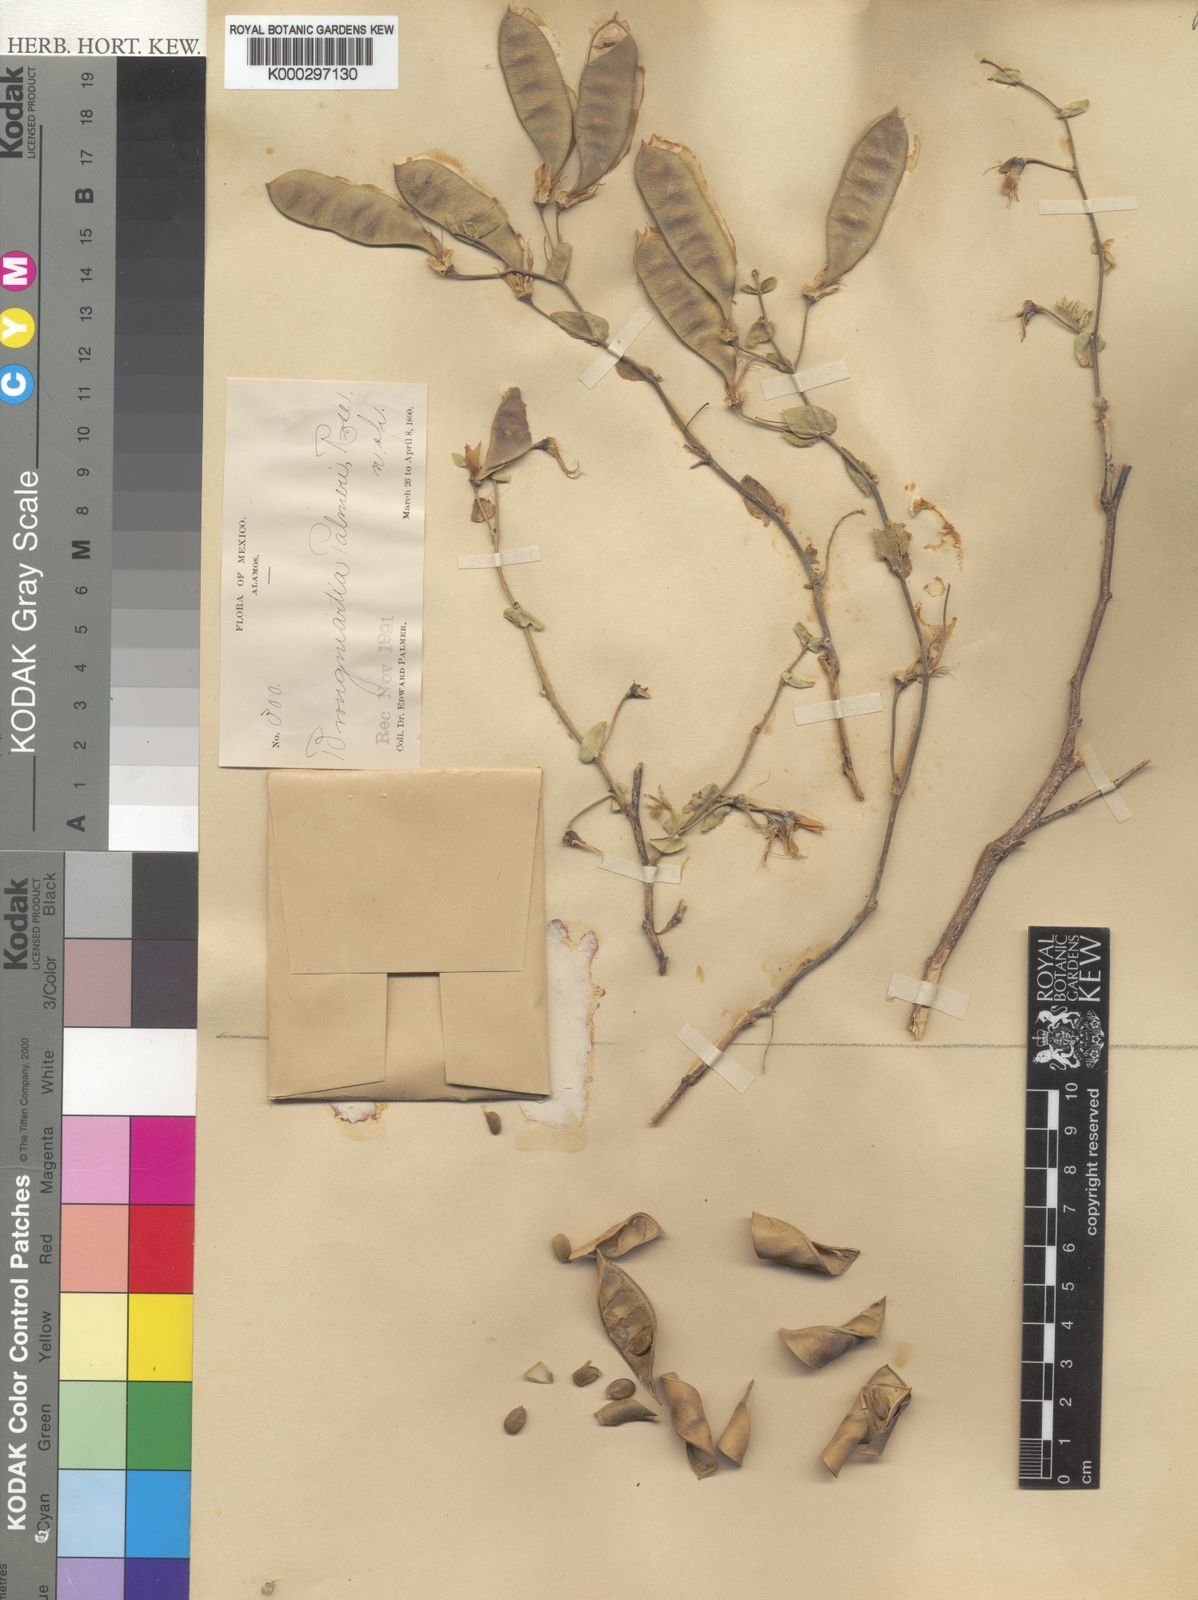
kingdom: Plantae
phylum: Tracheophyta
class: Magnoliopsida
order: Fabales
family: Fabaceae
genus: Brongniartia
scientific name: Brongniartia nudiflora
